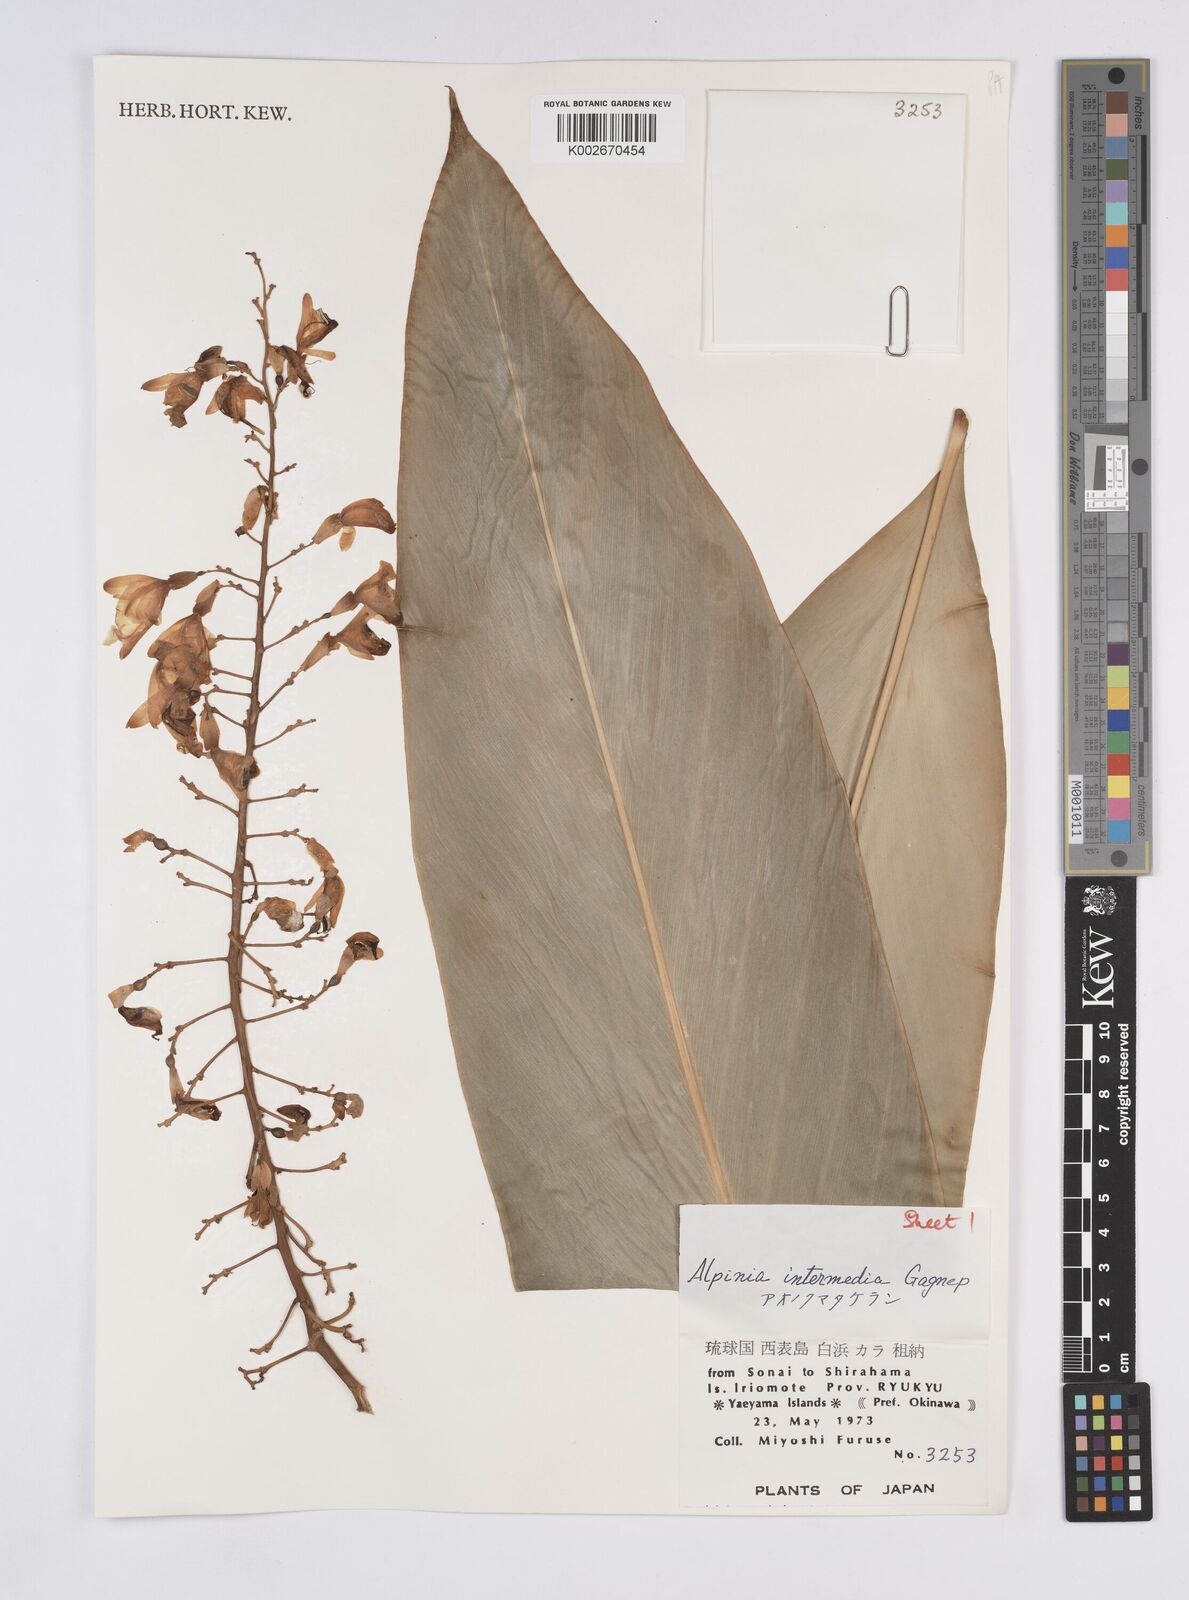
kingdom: Plantae
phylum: Tracheophyta
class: Liliopsida
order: Zingiberales
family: Zingiberaceae
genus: Alpinia
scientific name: Alpinia intermedia
